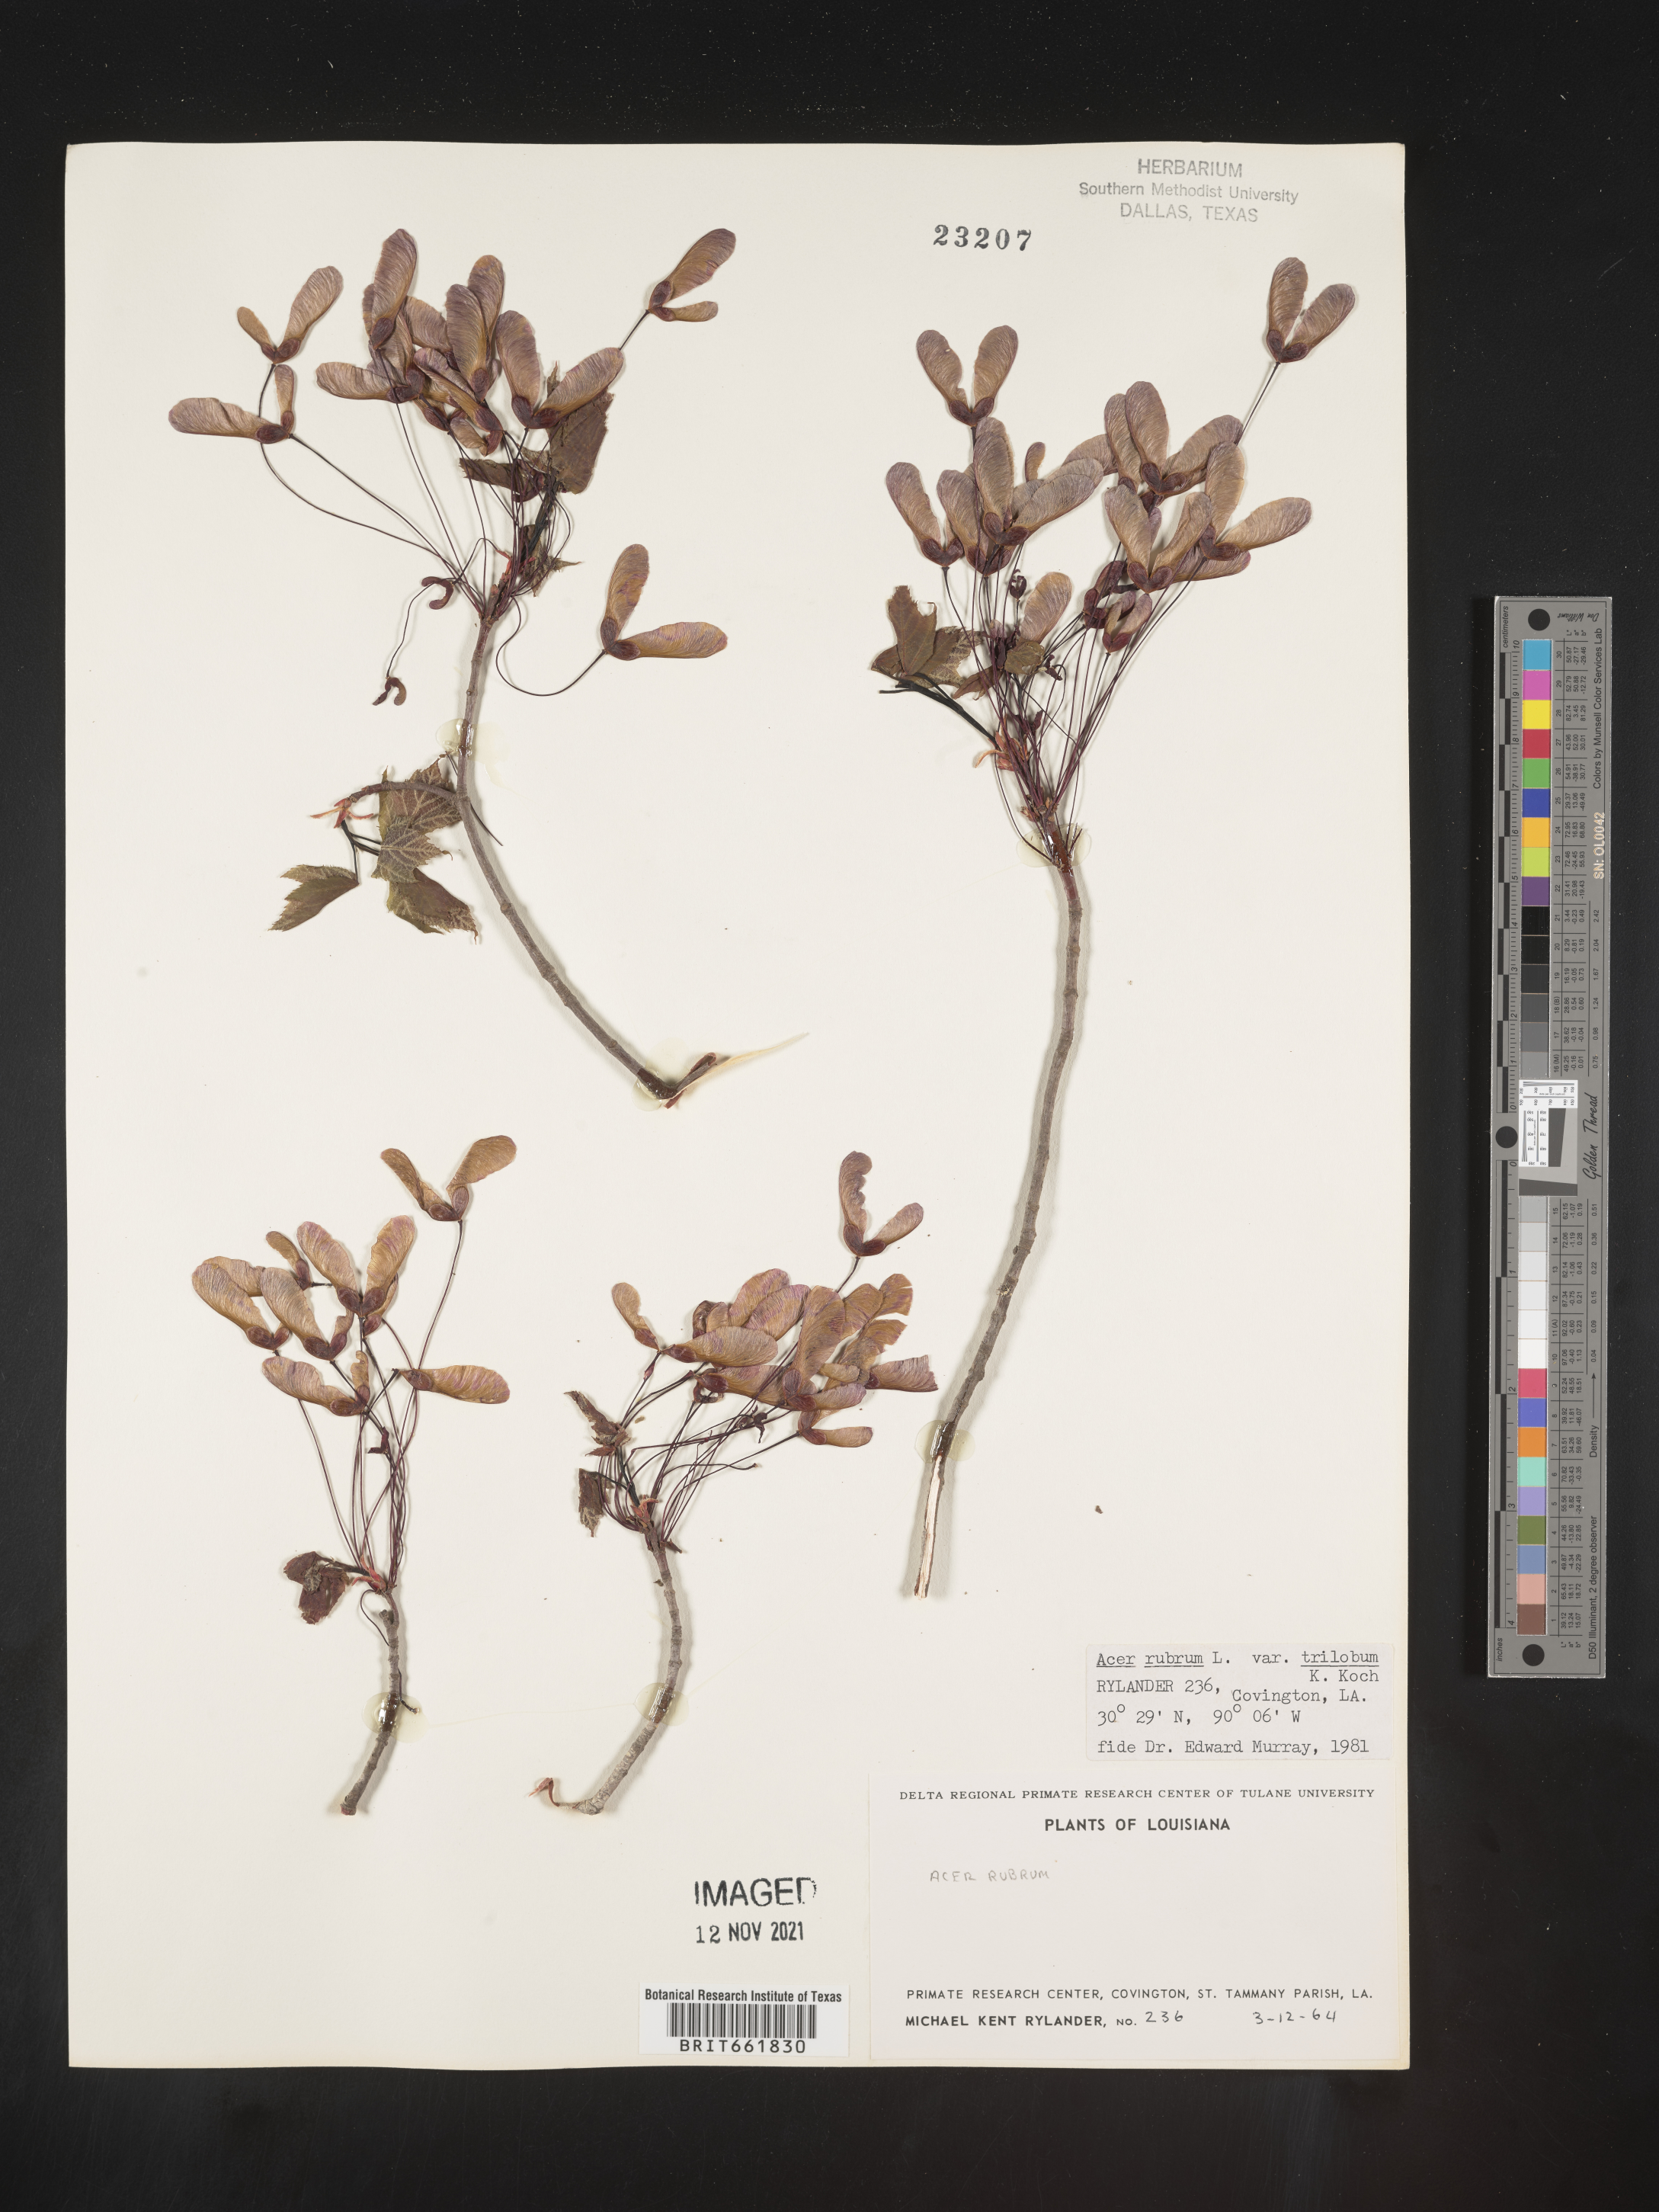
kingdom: Plantae
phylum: Tracheophyta
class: Magnoliopsida
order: Sapindales
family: Sapindaceae
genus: Acer
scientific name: Acer rubrum
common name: Red maple
